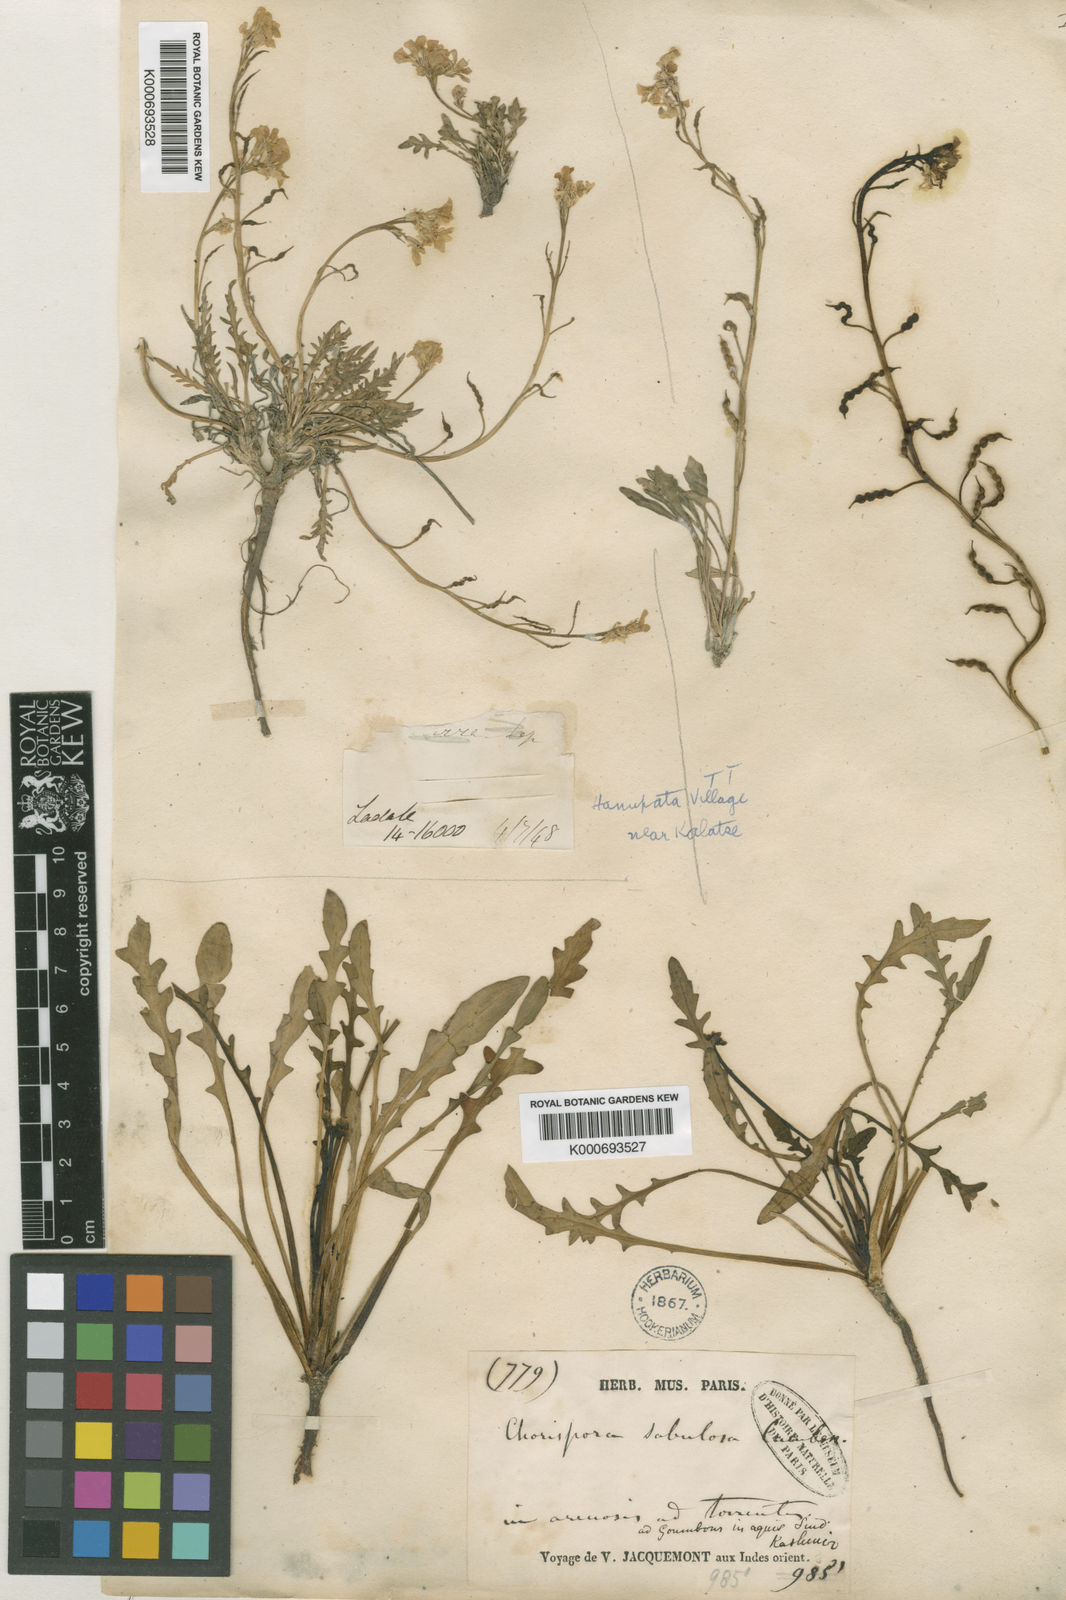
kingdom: Plantae
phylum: Tracheophyta
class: Magnoliopsida
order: Brassicales
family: Brassicaceae
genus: Chorispora
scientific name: Chorispora sabulosa
